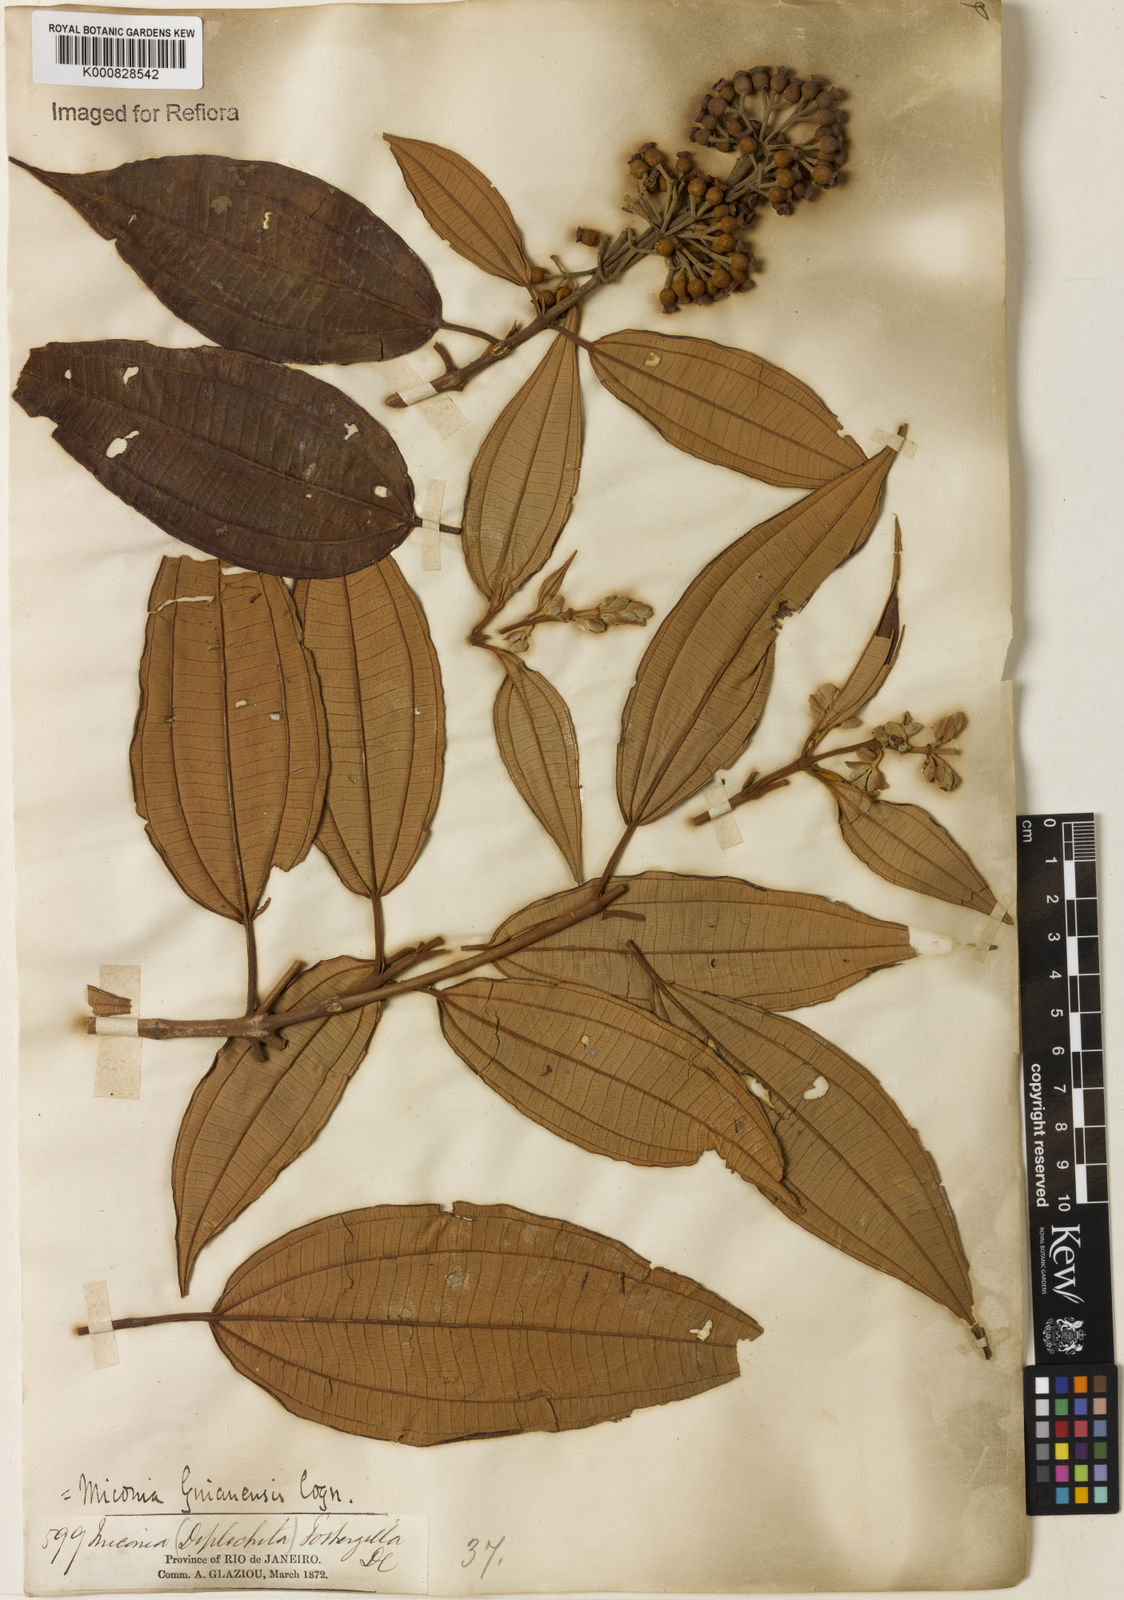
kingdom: Plantae
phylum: Tracheophyta
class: Magnoliopsida
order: Myrtales
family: Melastomataceae
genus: Miconia
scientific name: Miconia mirabilis
